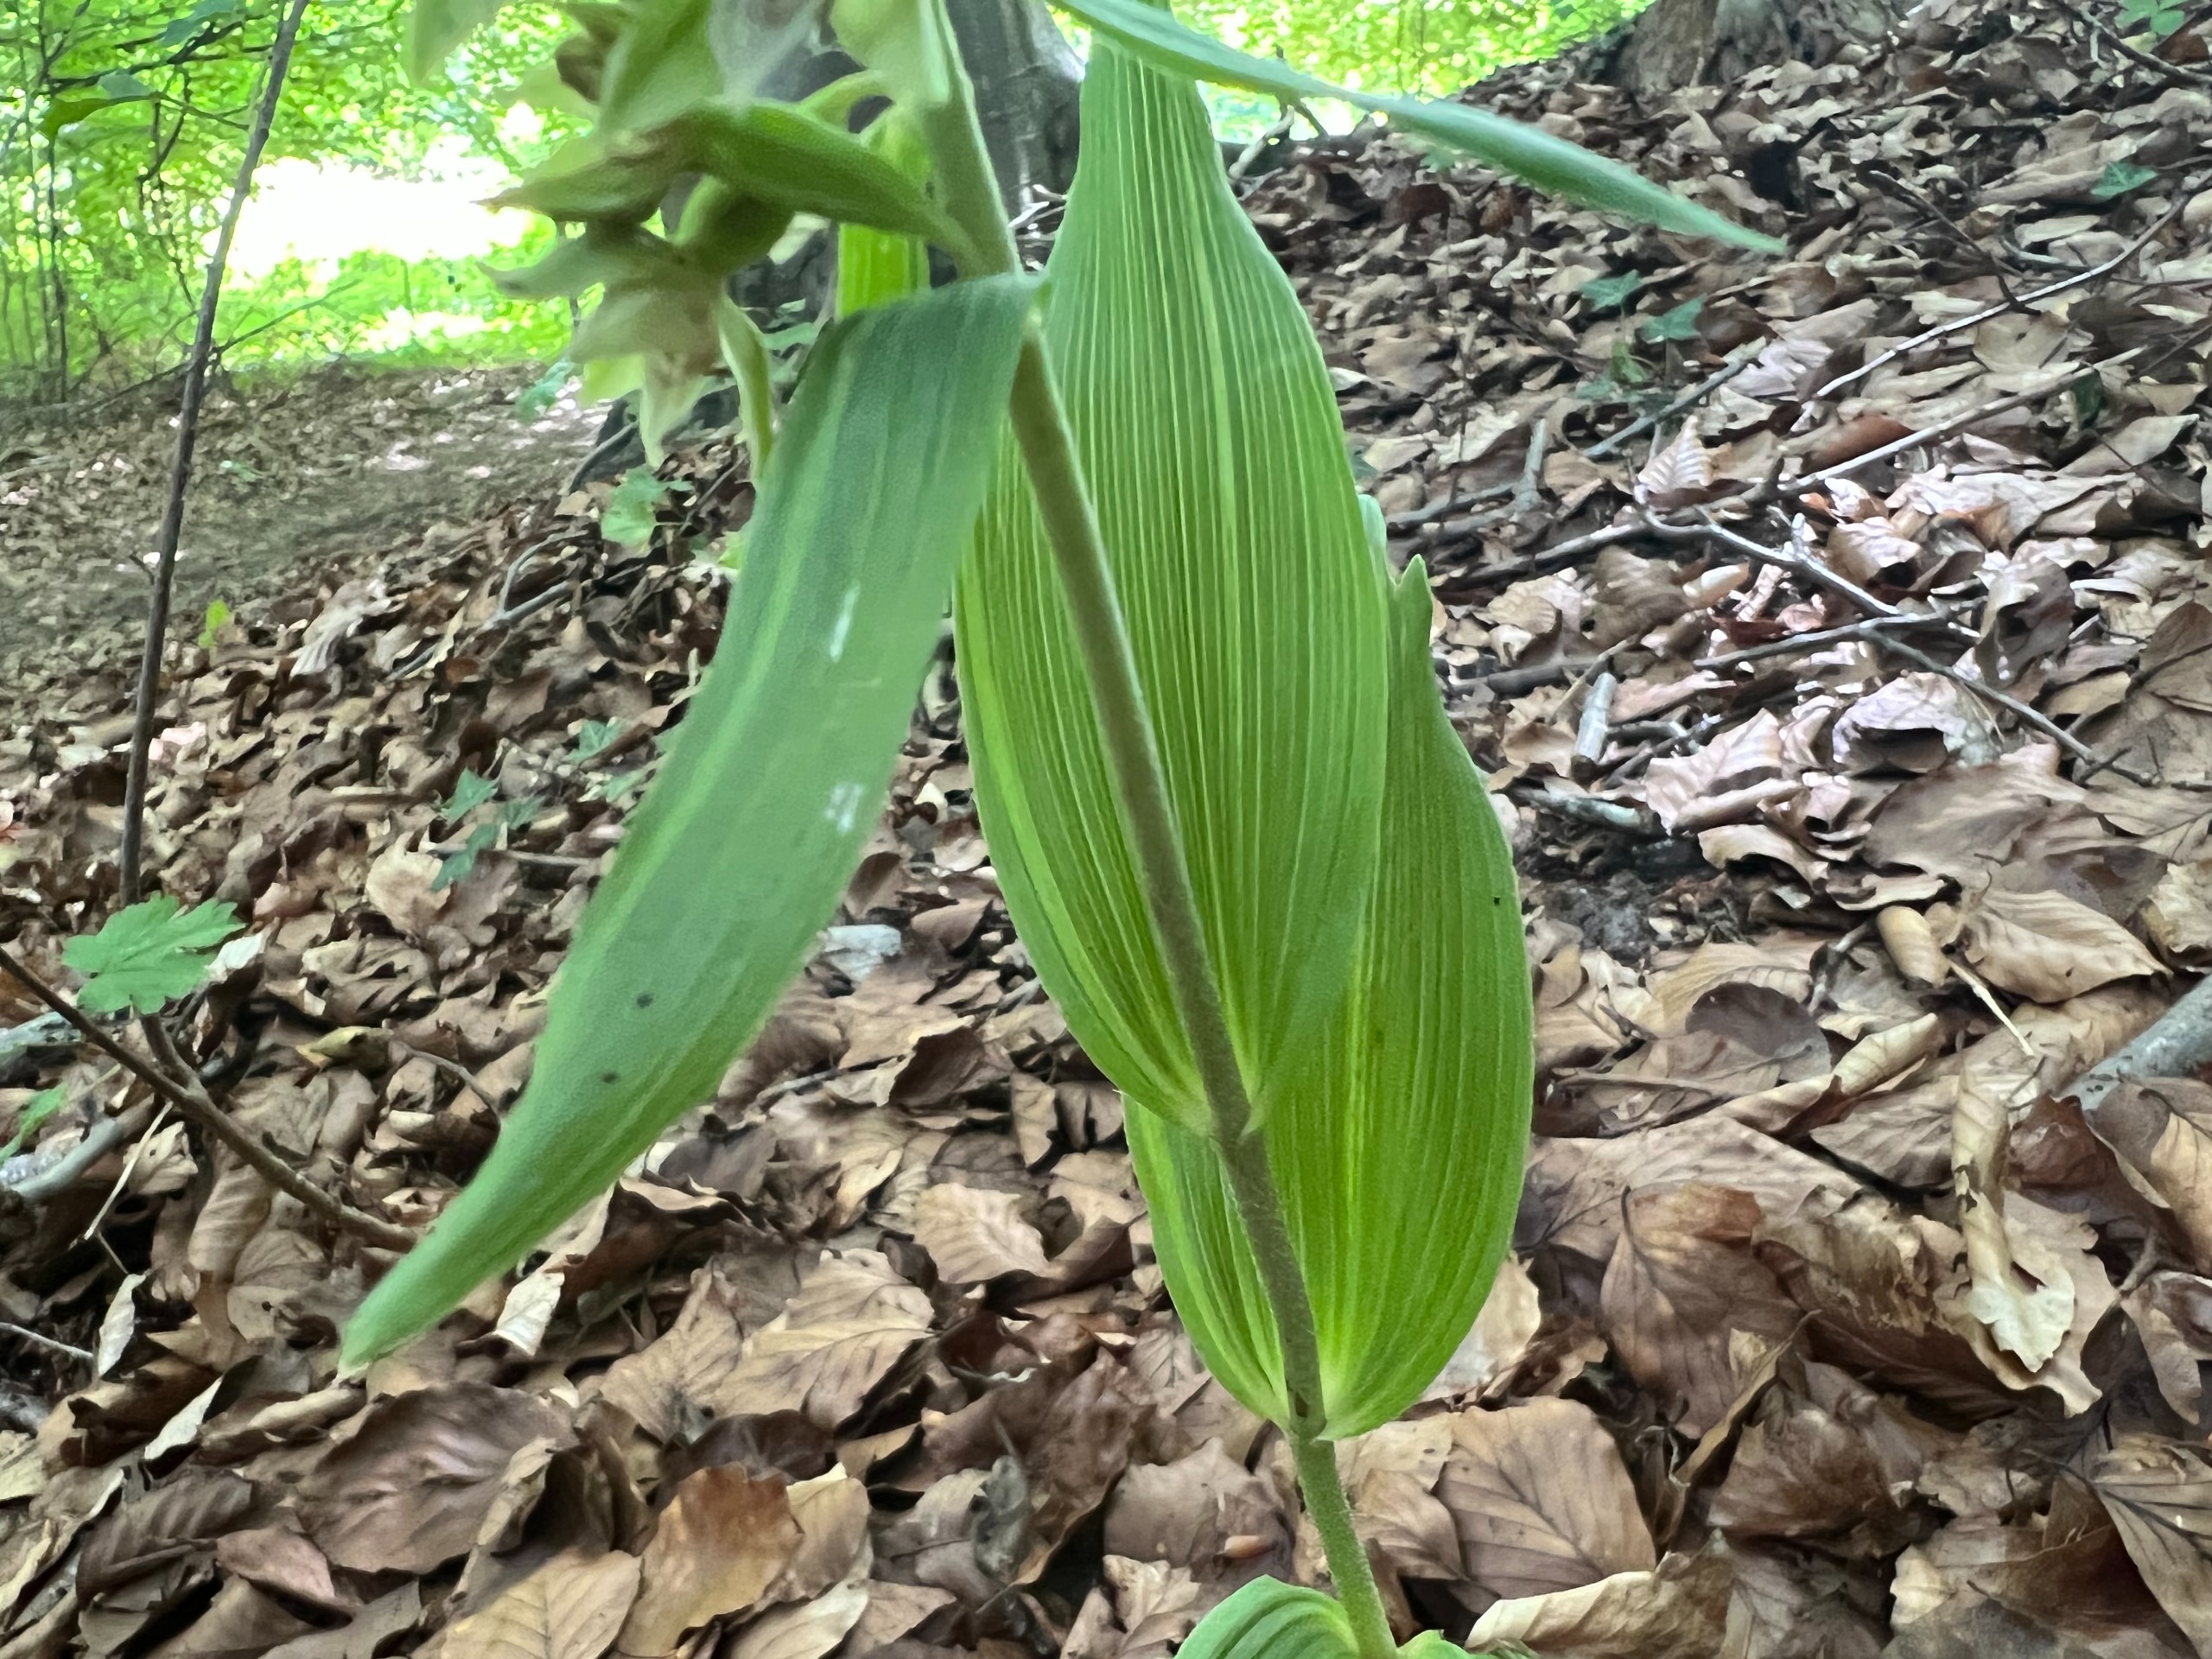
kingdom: Plantae
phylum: Tracheophyta
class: Liliopsida
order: Asparagales
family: Orchidaceae
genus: Epipactis
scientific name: Epipactis leptochila
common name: Storblomstret hullæbe
